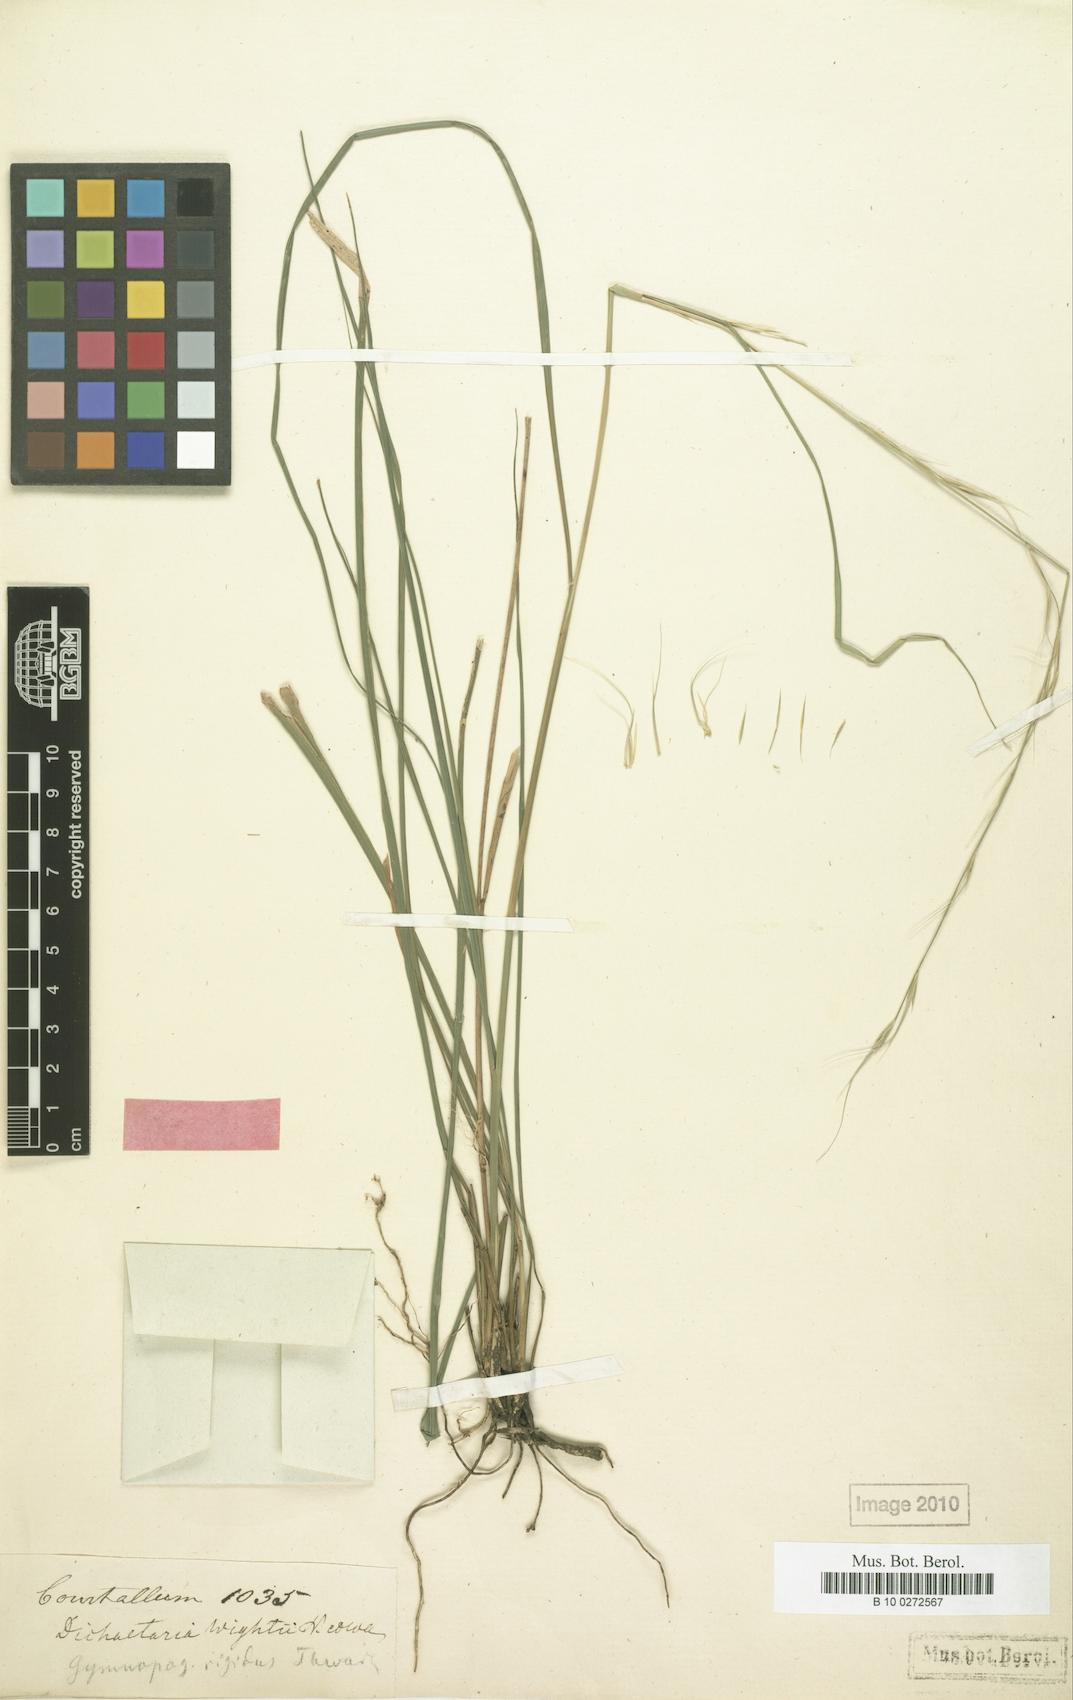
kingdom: Plantae
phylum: Tracheophyta
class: Liliopsida
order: Poales
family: Poaceae
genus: Dichaetaria
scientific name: Dichaetaria wightii
